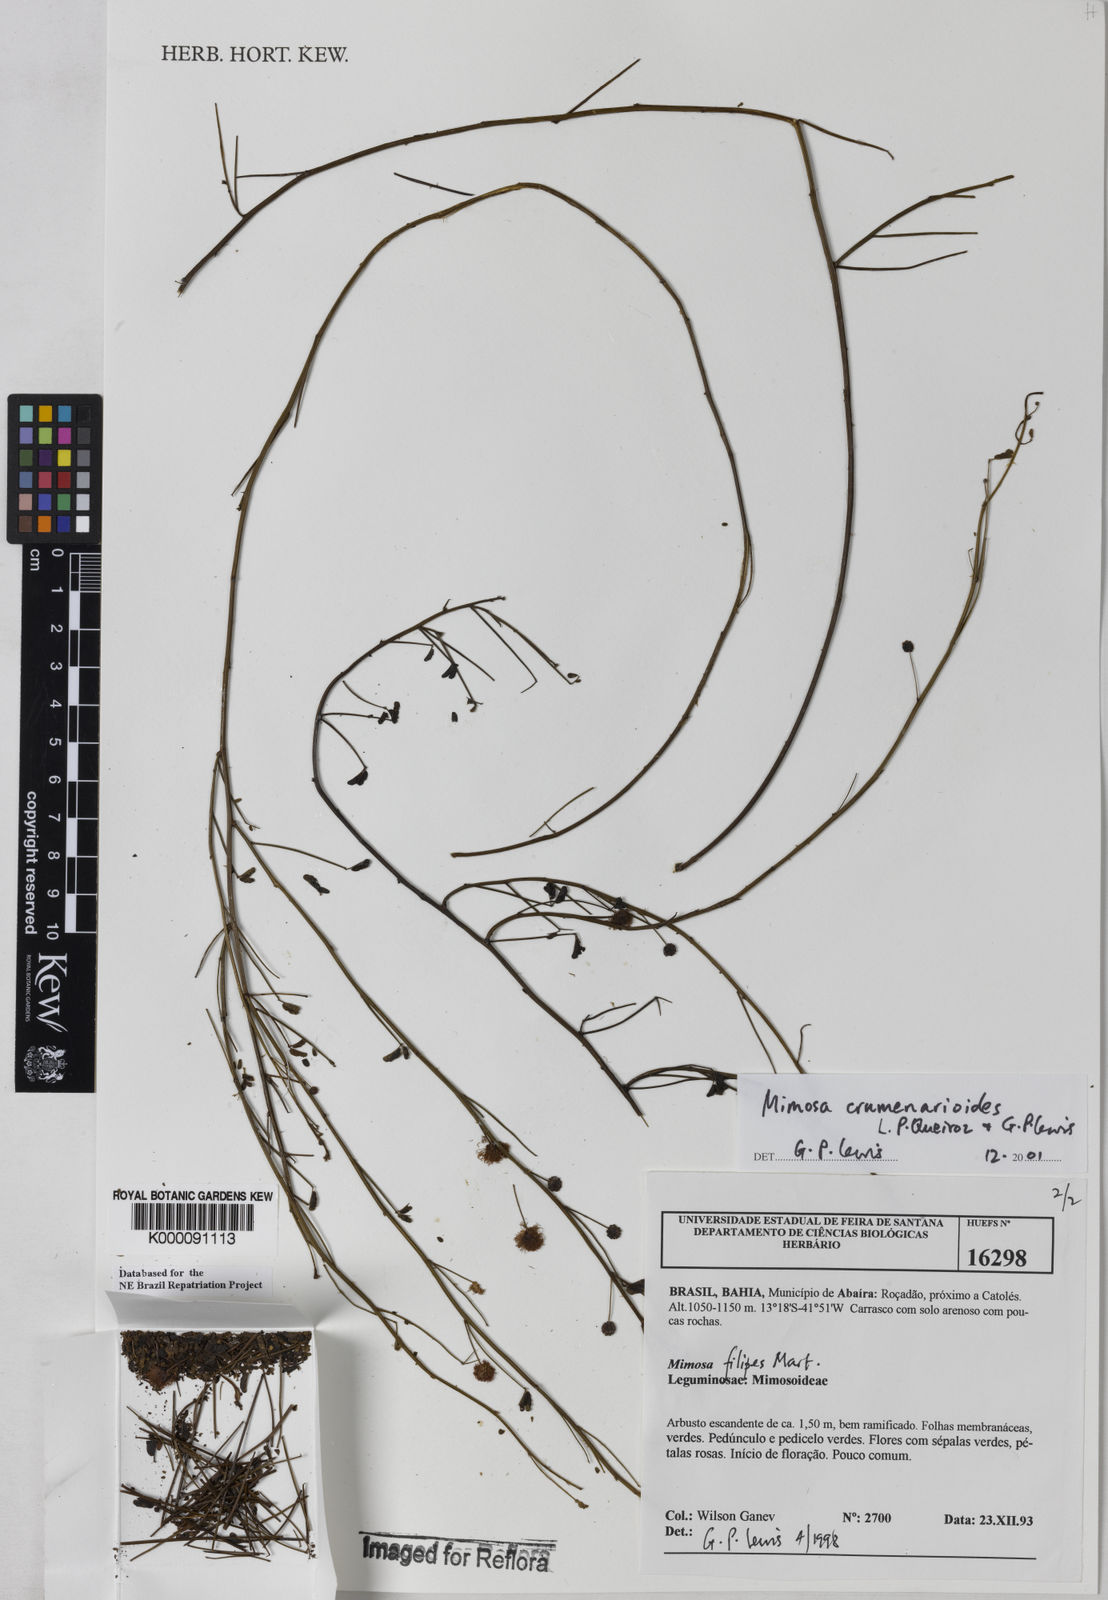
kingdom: Plantae
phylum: Tracheophyta
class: Magnoliopsida
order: Fabales
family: Fabaceae
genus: Mimosa
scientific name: Mimosa crumenarioides
